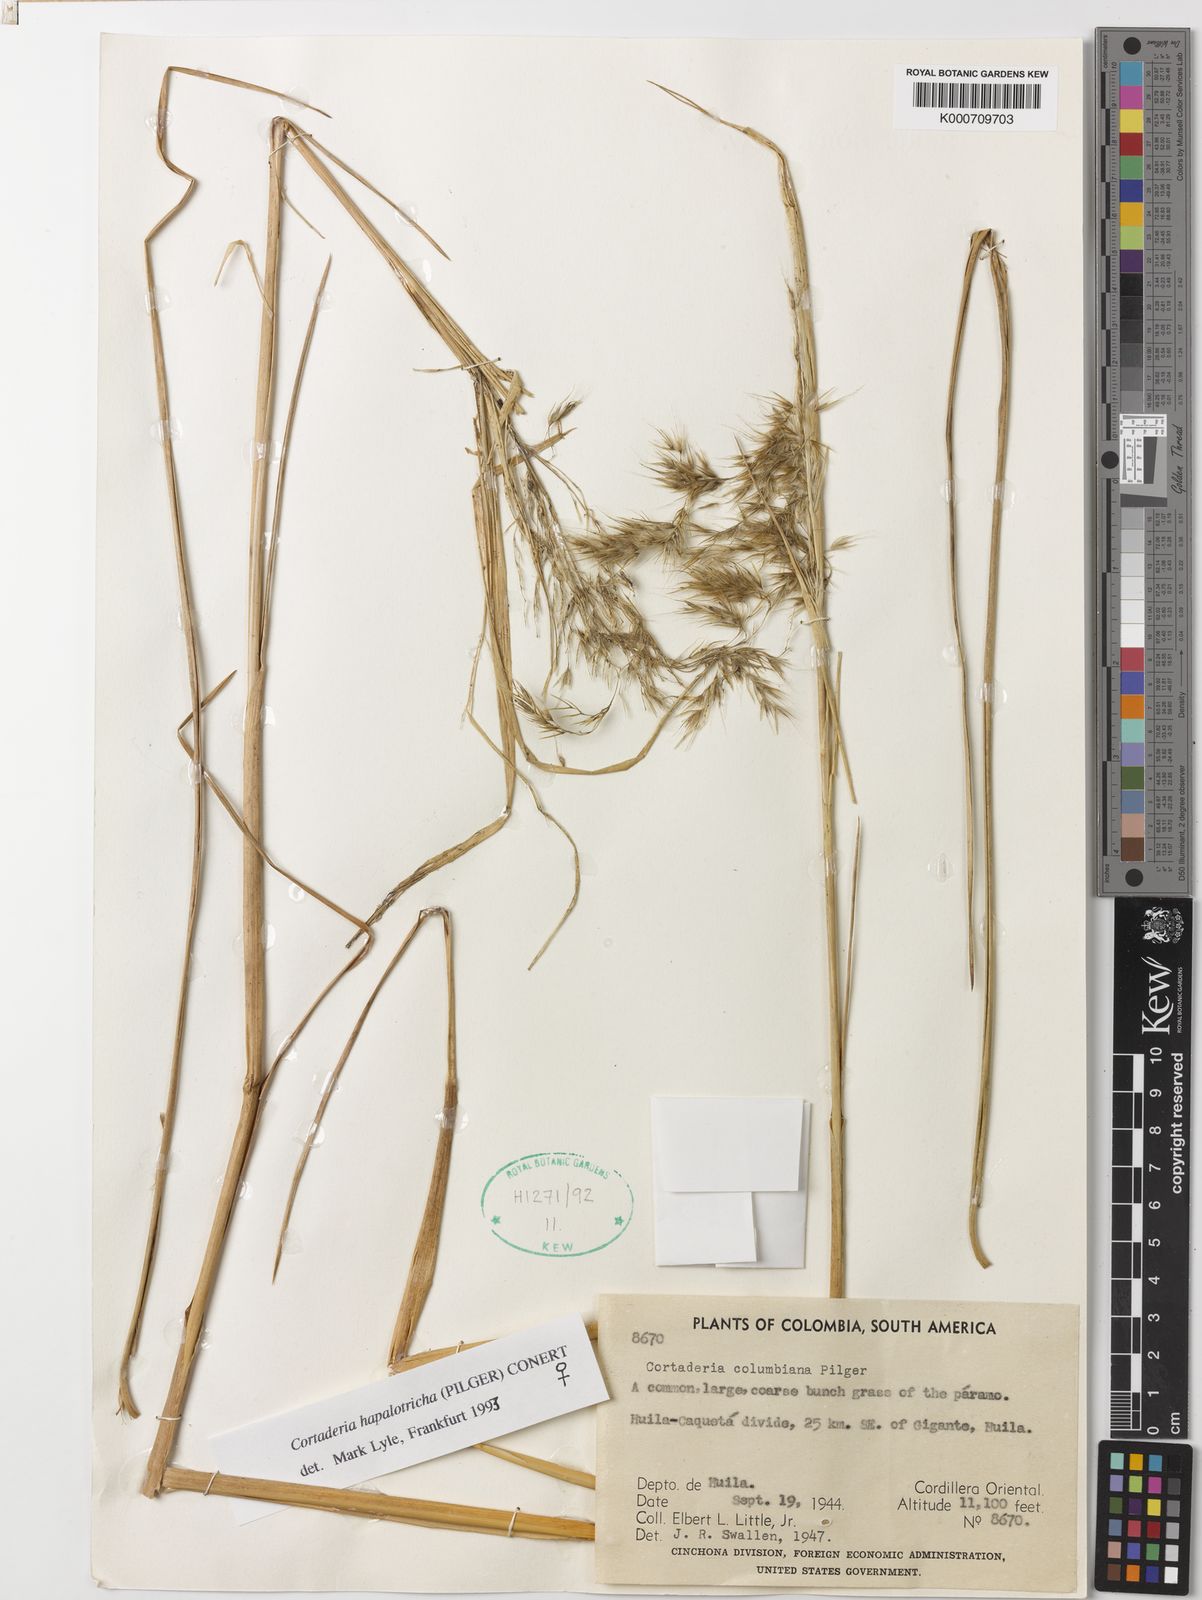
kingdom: Plantae
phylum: Tracheophyta
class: Liliopsida
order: Poales
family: Poaceae
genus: Cortaderia
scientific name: Cortaderia hapalotricha
